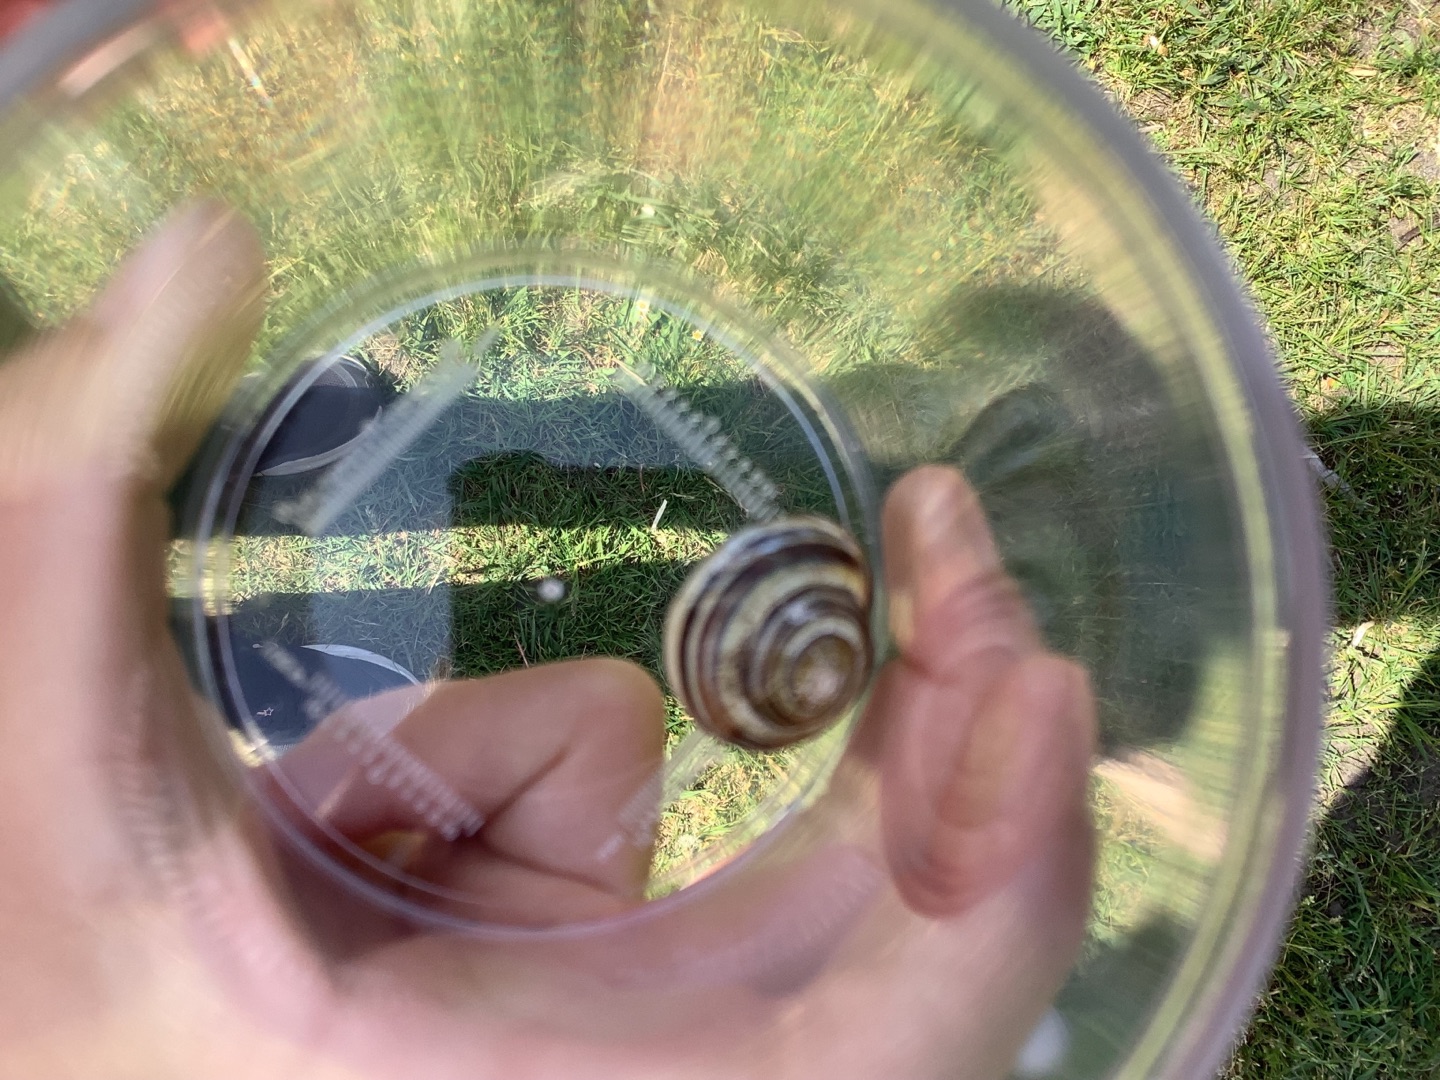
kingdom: Animalia
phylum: Mollusca
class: Gastropoda
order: Stylommatophora
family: Helicidae
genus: Cepaea
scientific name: Cepaea nemoralis
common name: Lundsnegl
